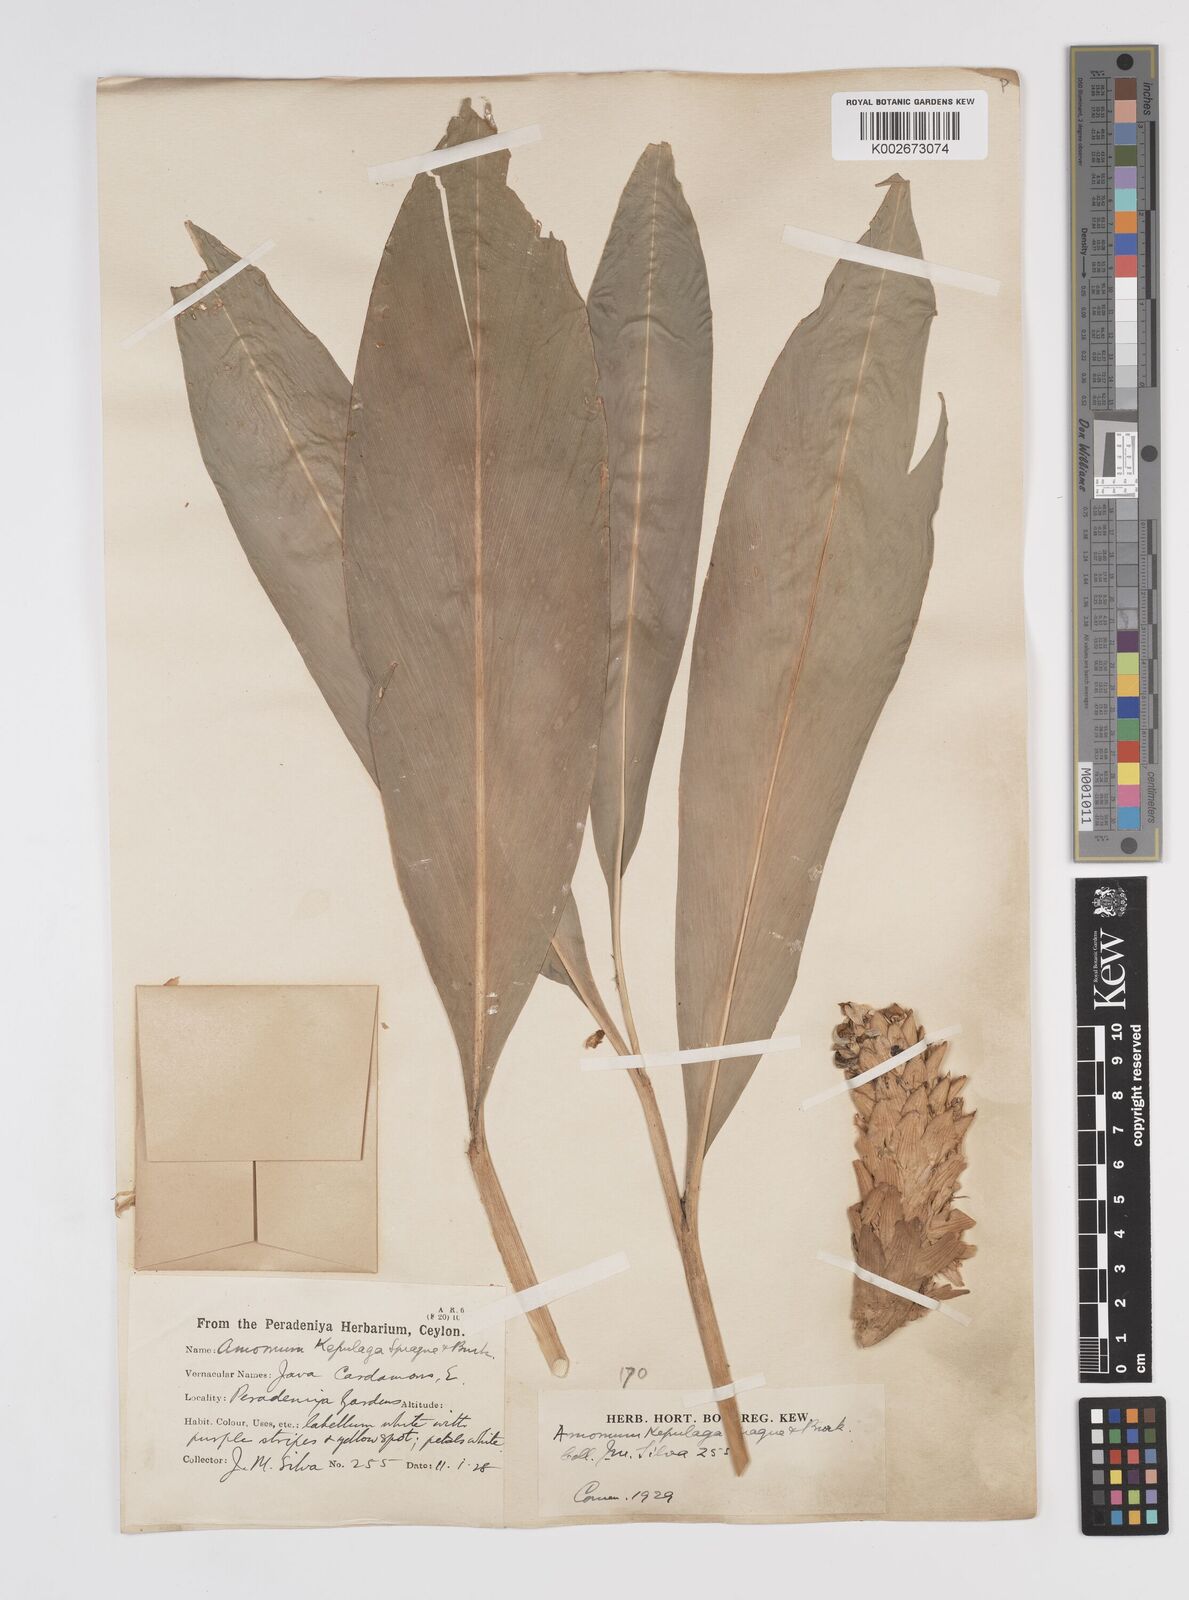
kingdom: Plantae
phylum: Tracheophyta
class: Liliopsida
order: Zingiberales
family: Zingiberaceae
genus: Wurfbainia
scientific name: Wurfbainia compacta
